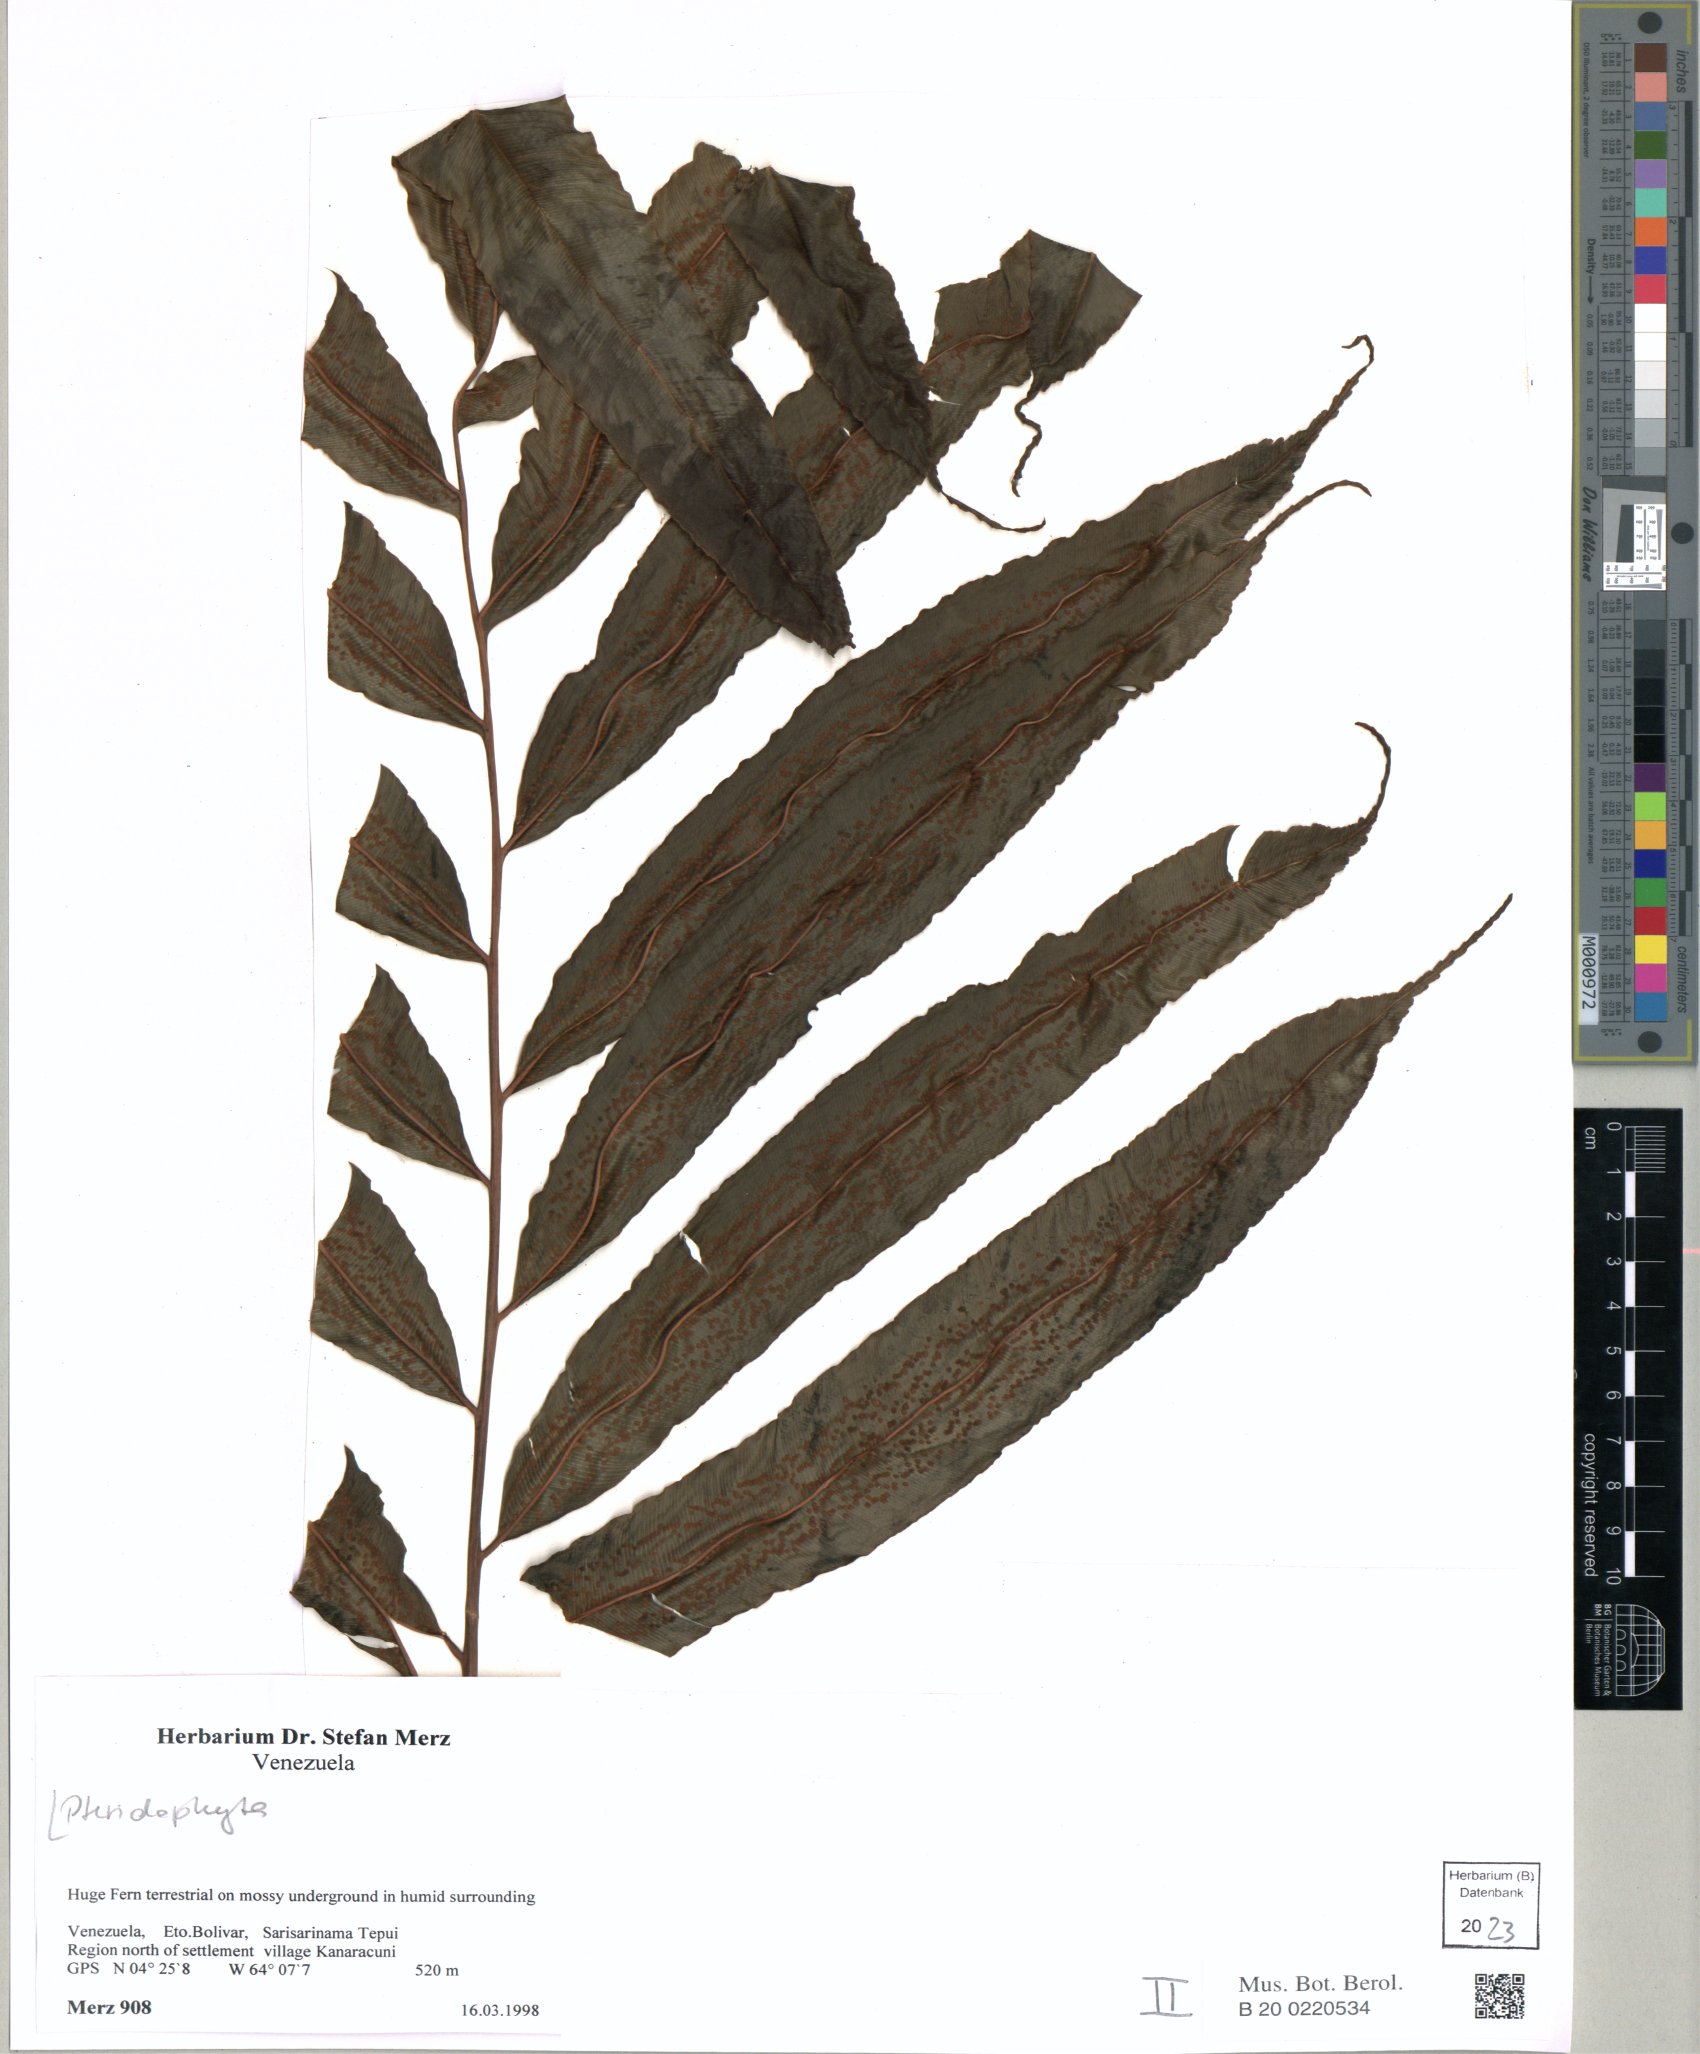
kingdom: Plantae
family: Pteridophyta
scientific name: Pteridophyta
